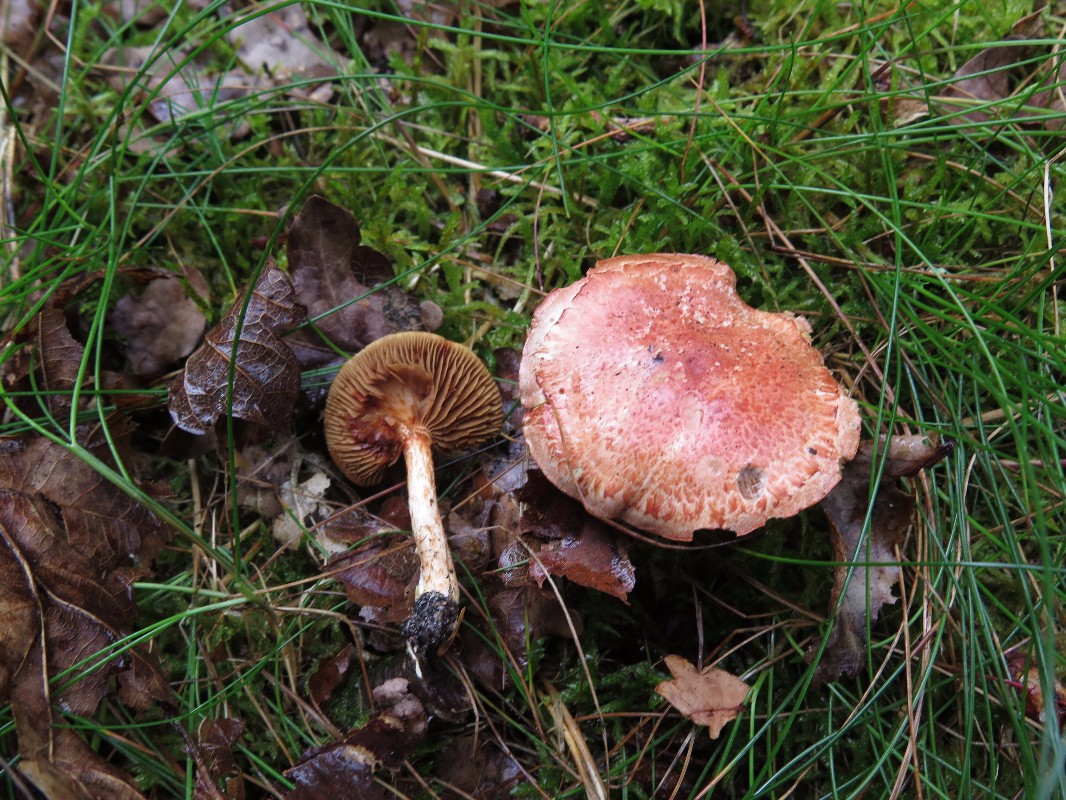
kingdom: Fungi
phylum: Basidiomycota
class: Agaricomycetes
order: Agaricales
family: Cortinariaceae
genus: Cortinarius
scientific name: Cortinarius bolaris
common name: cinnoberskællet slørhat
